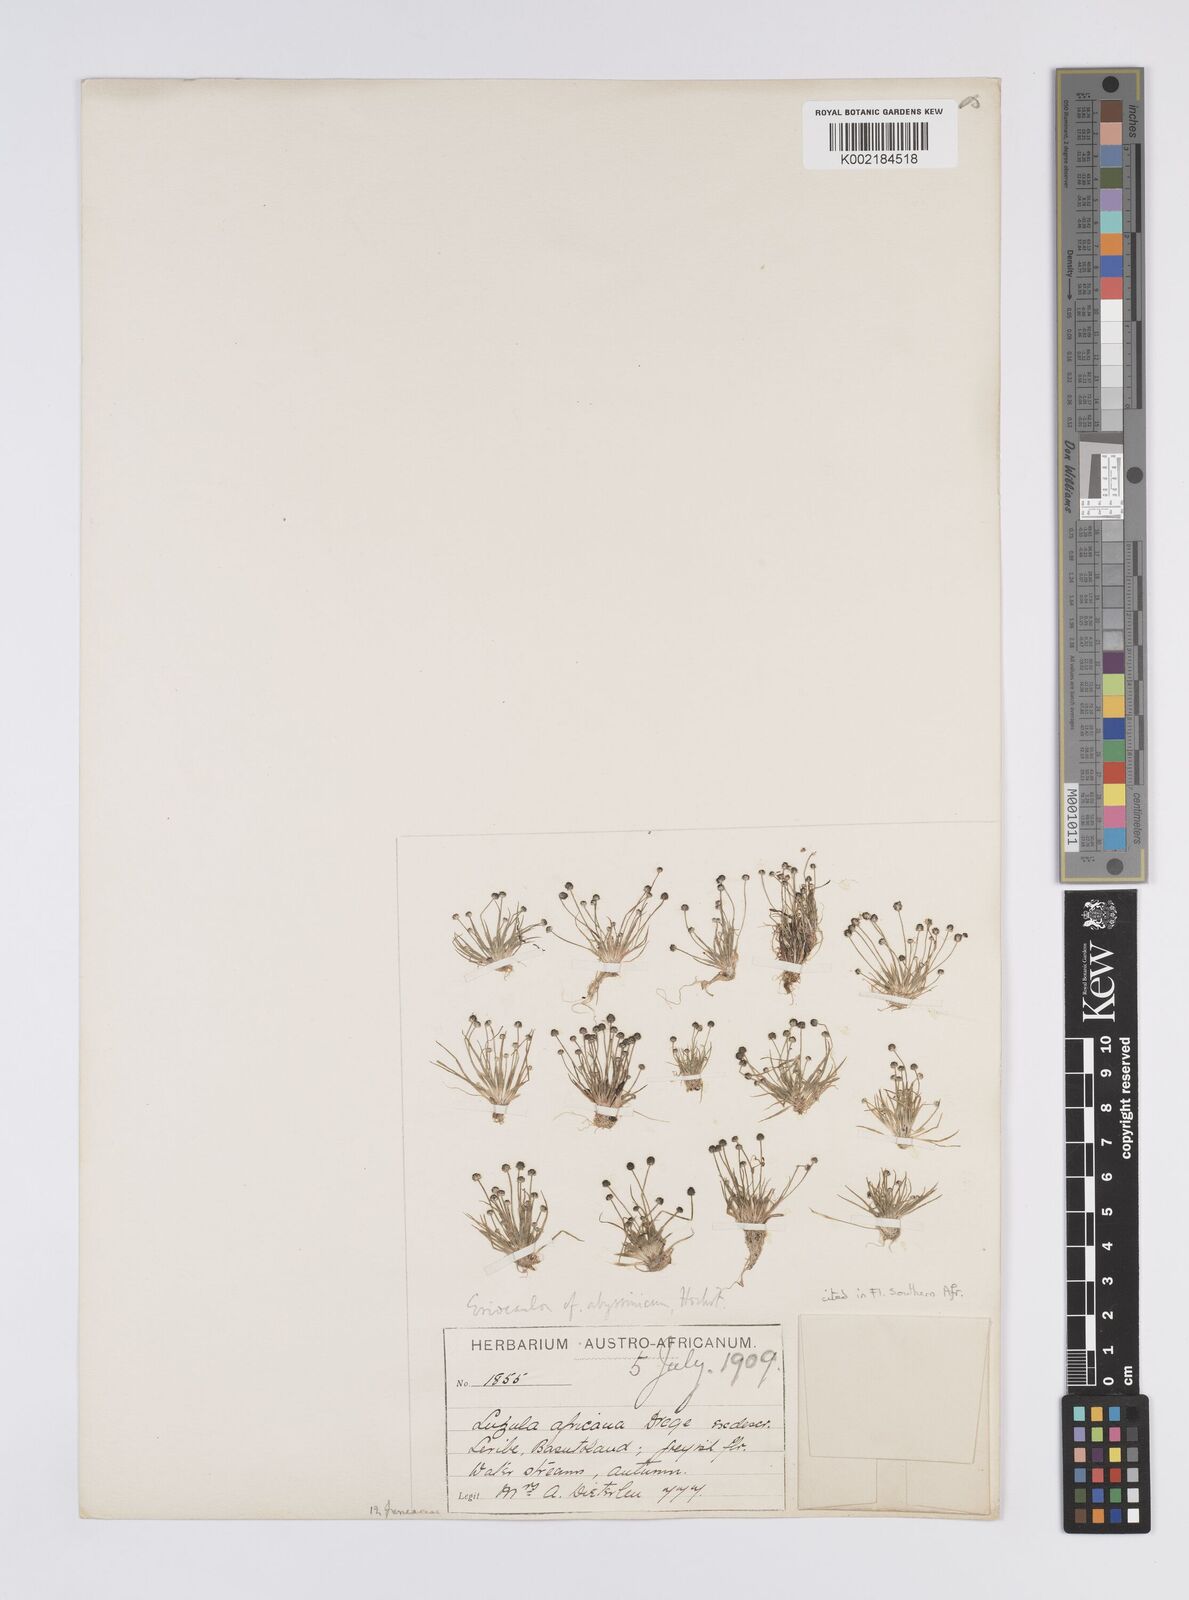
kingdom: Plantae
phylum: Tracheophyta
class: Liliopsida
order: Poales
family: Eriocaulaceae
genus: Eriocaulon
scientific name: Eriocaulon abyssinicum
